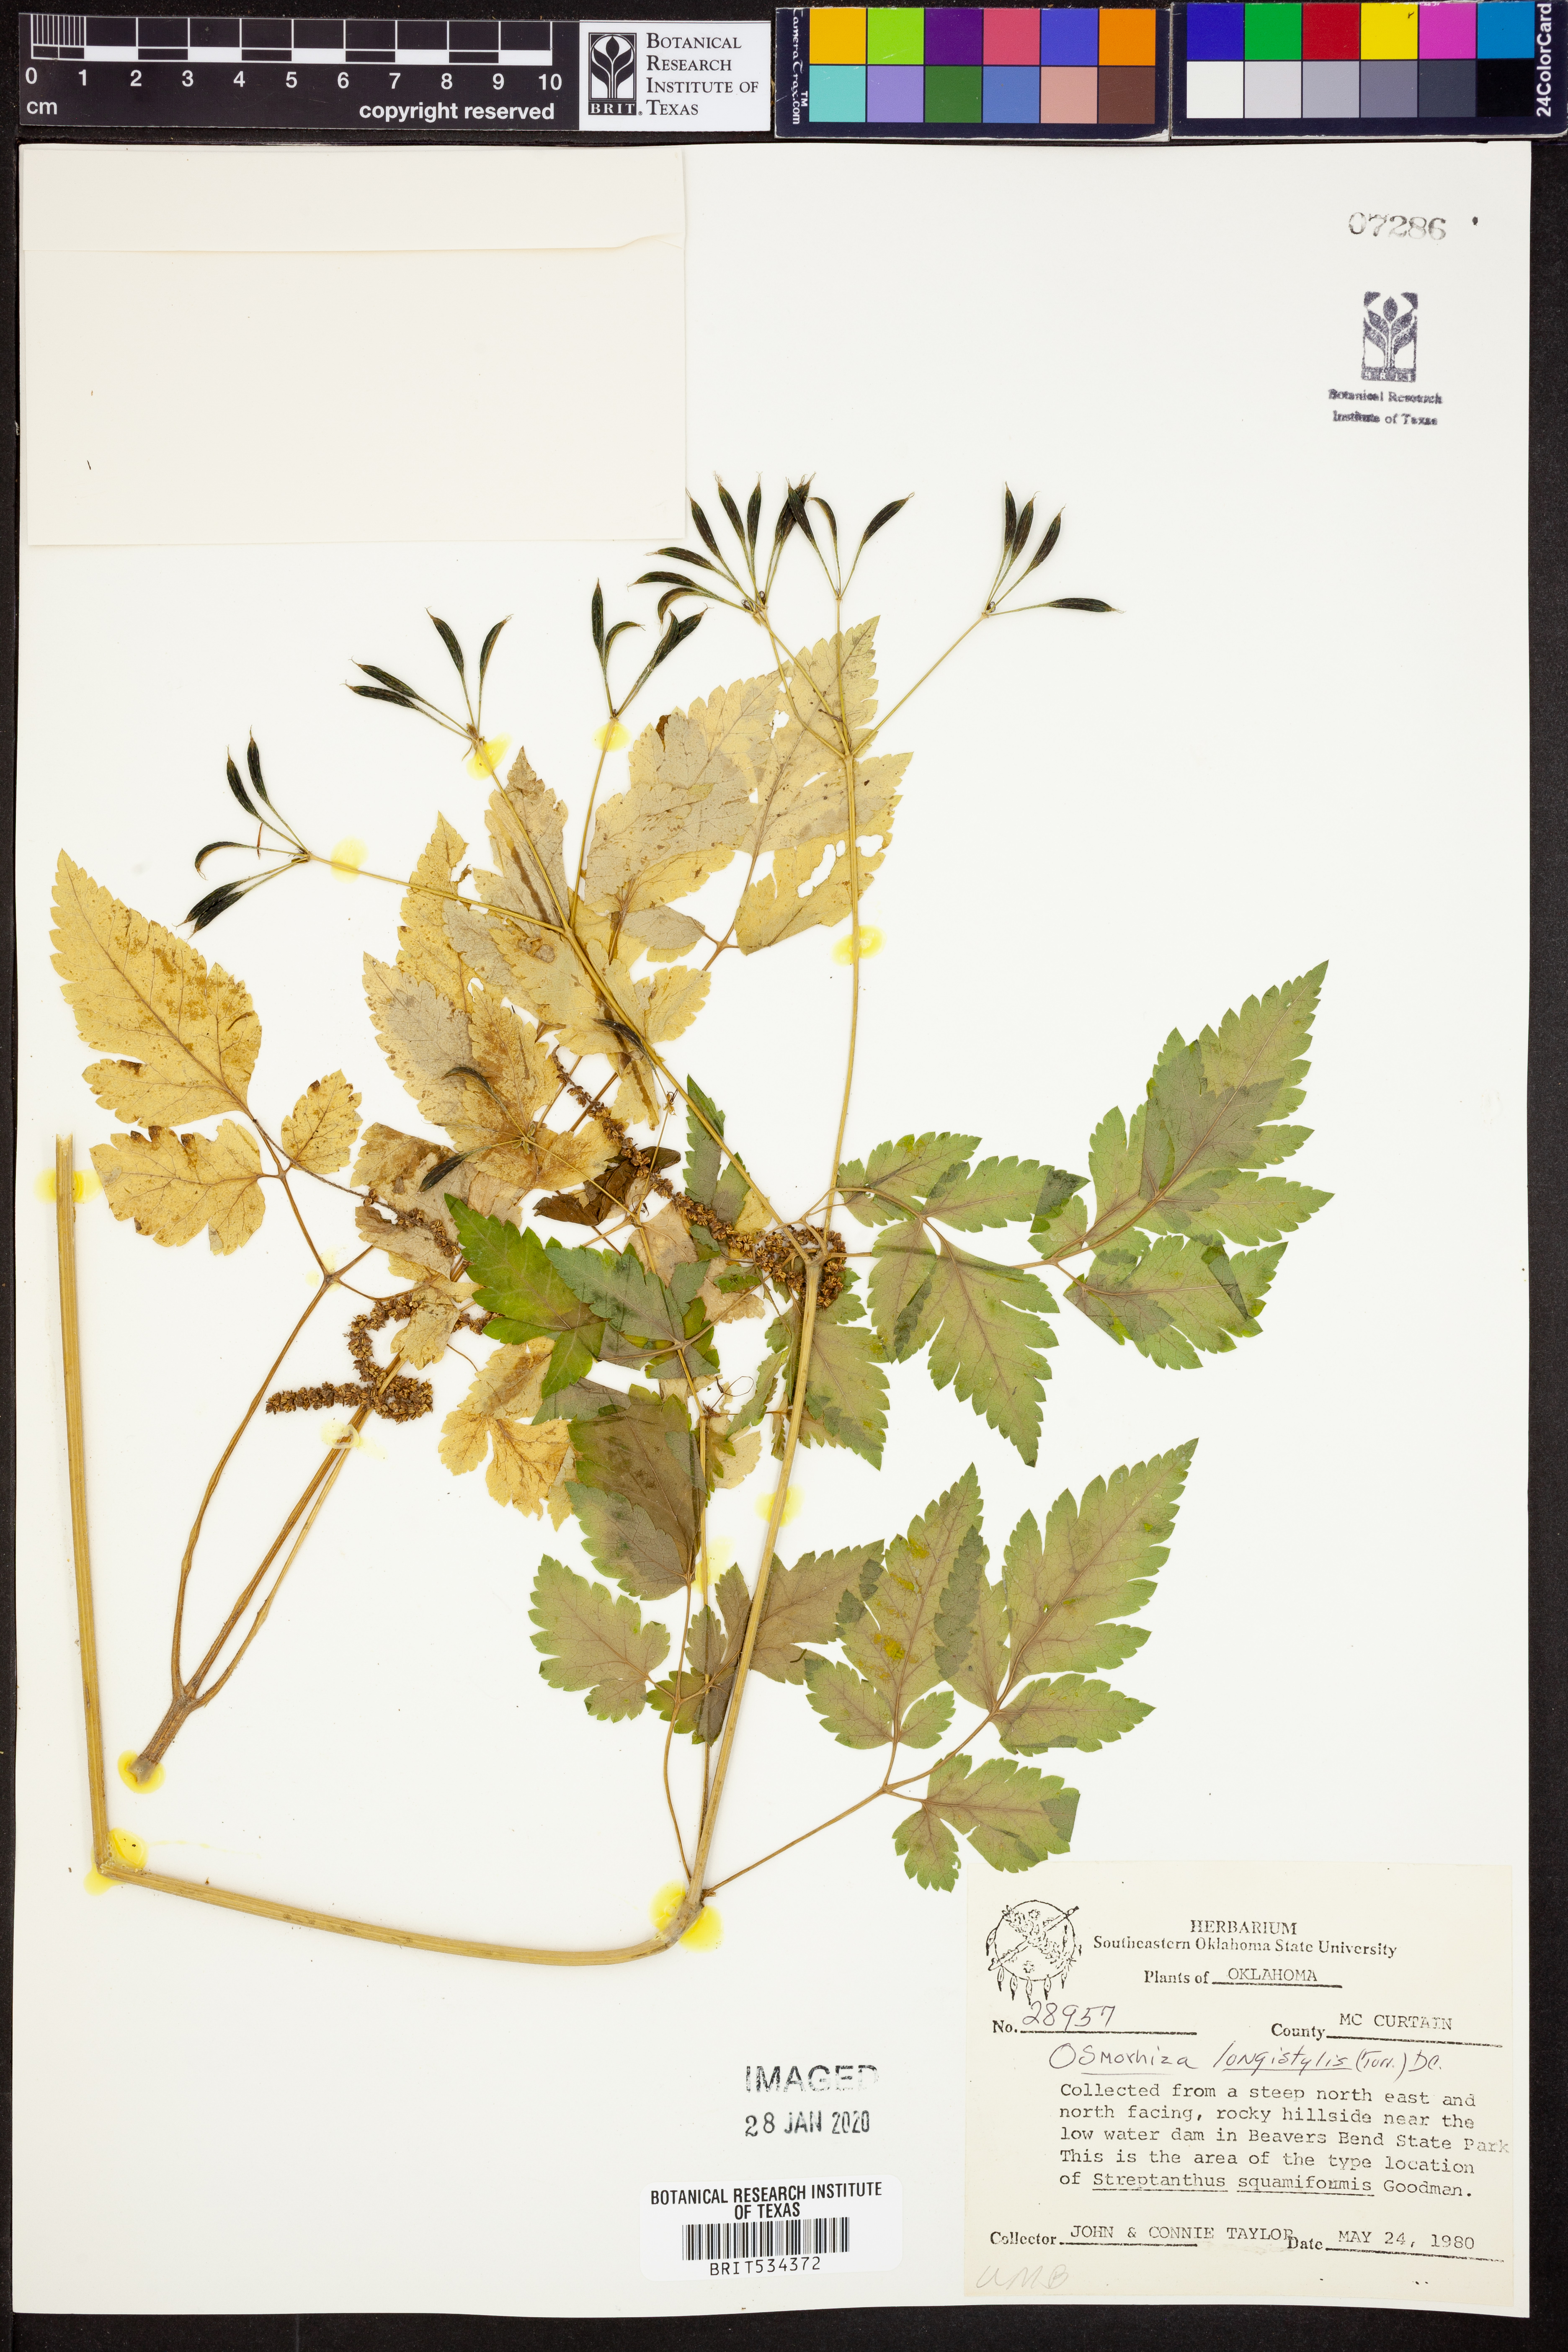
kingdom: Plantae
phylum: Tracheophyta
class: Magnoliopsida
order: Apiales
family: Apiaceae
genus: Osmorhiza
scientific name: Osmorhiza longistylis
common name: Smooth sweet cicely
